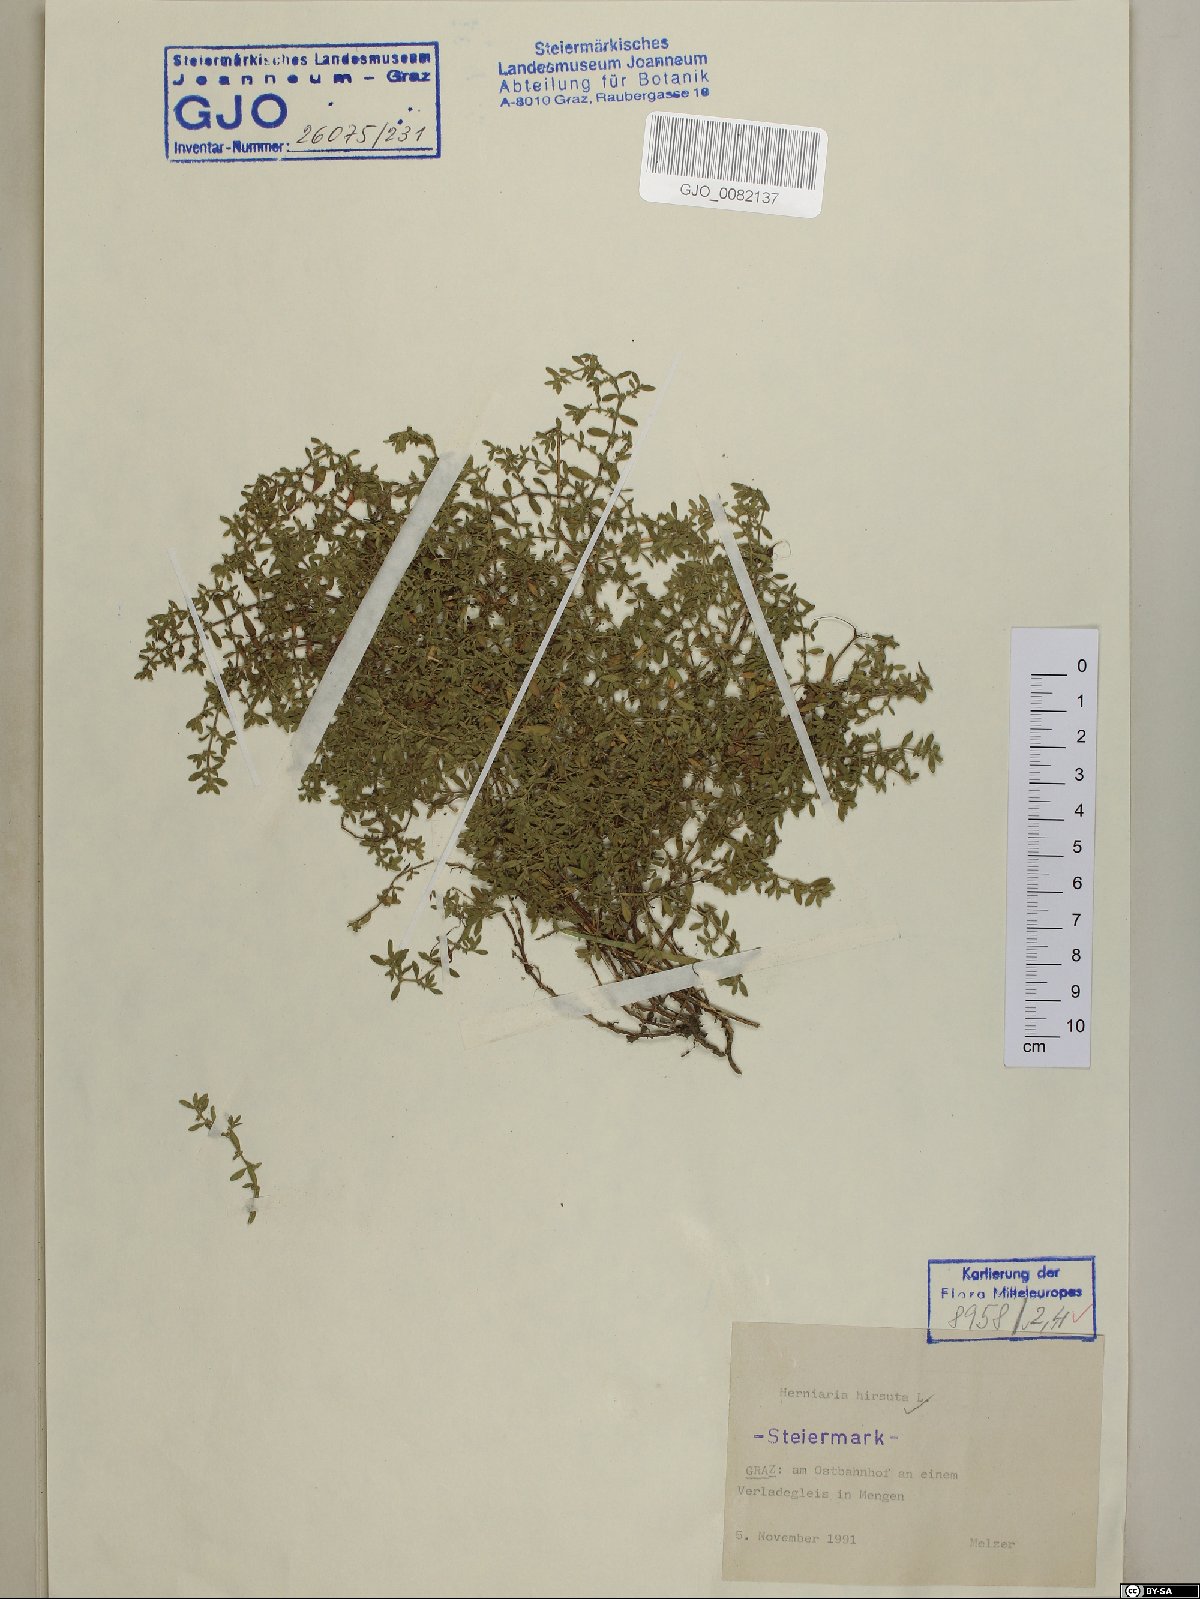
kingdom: Plantae
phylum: Tracheophyta
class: Magnoliopsida
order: Caryophyllales
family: Caryophyllaceae
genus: Herniaria
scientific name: Herniaria hirsuta
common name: Hairy rupturewort
